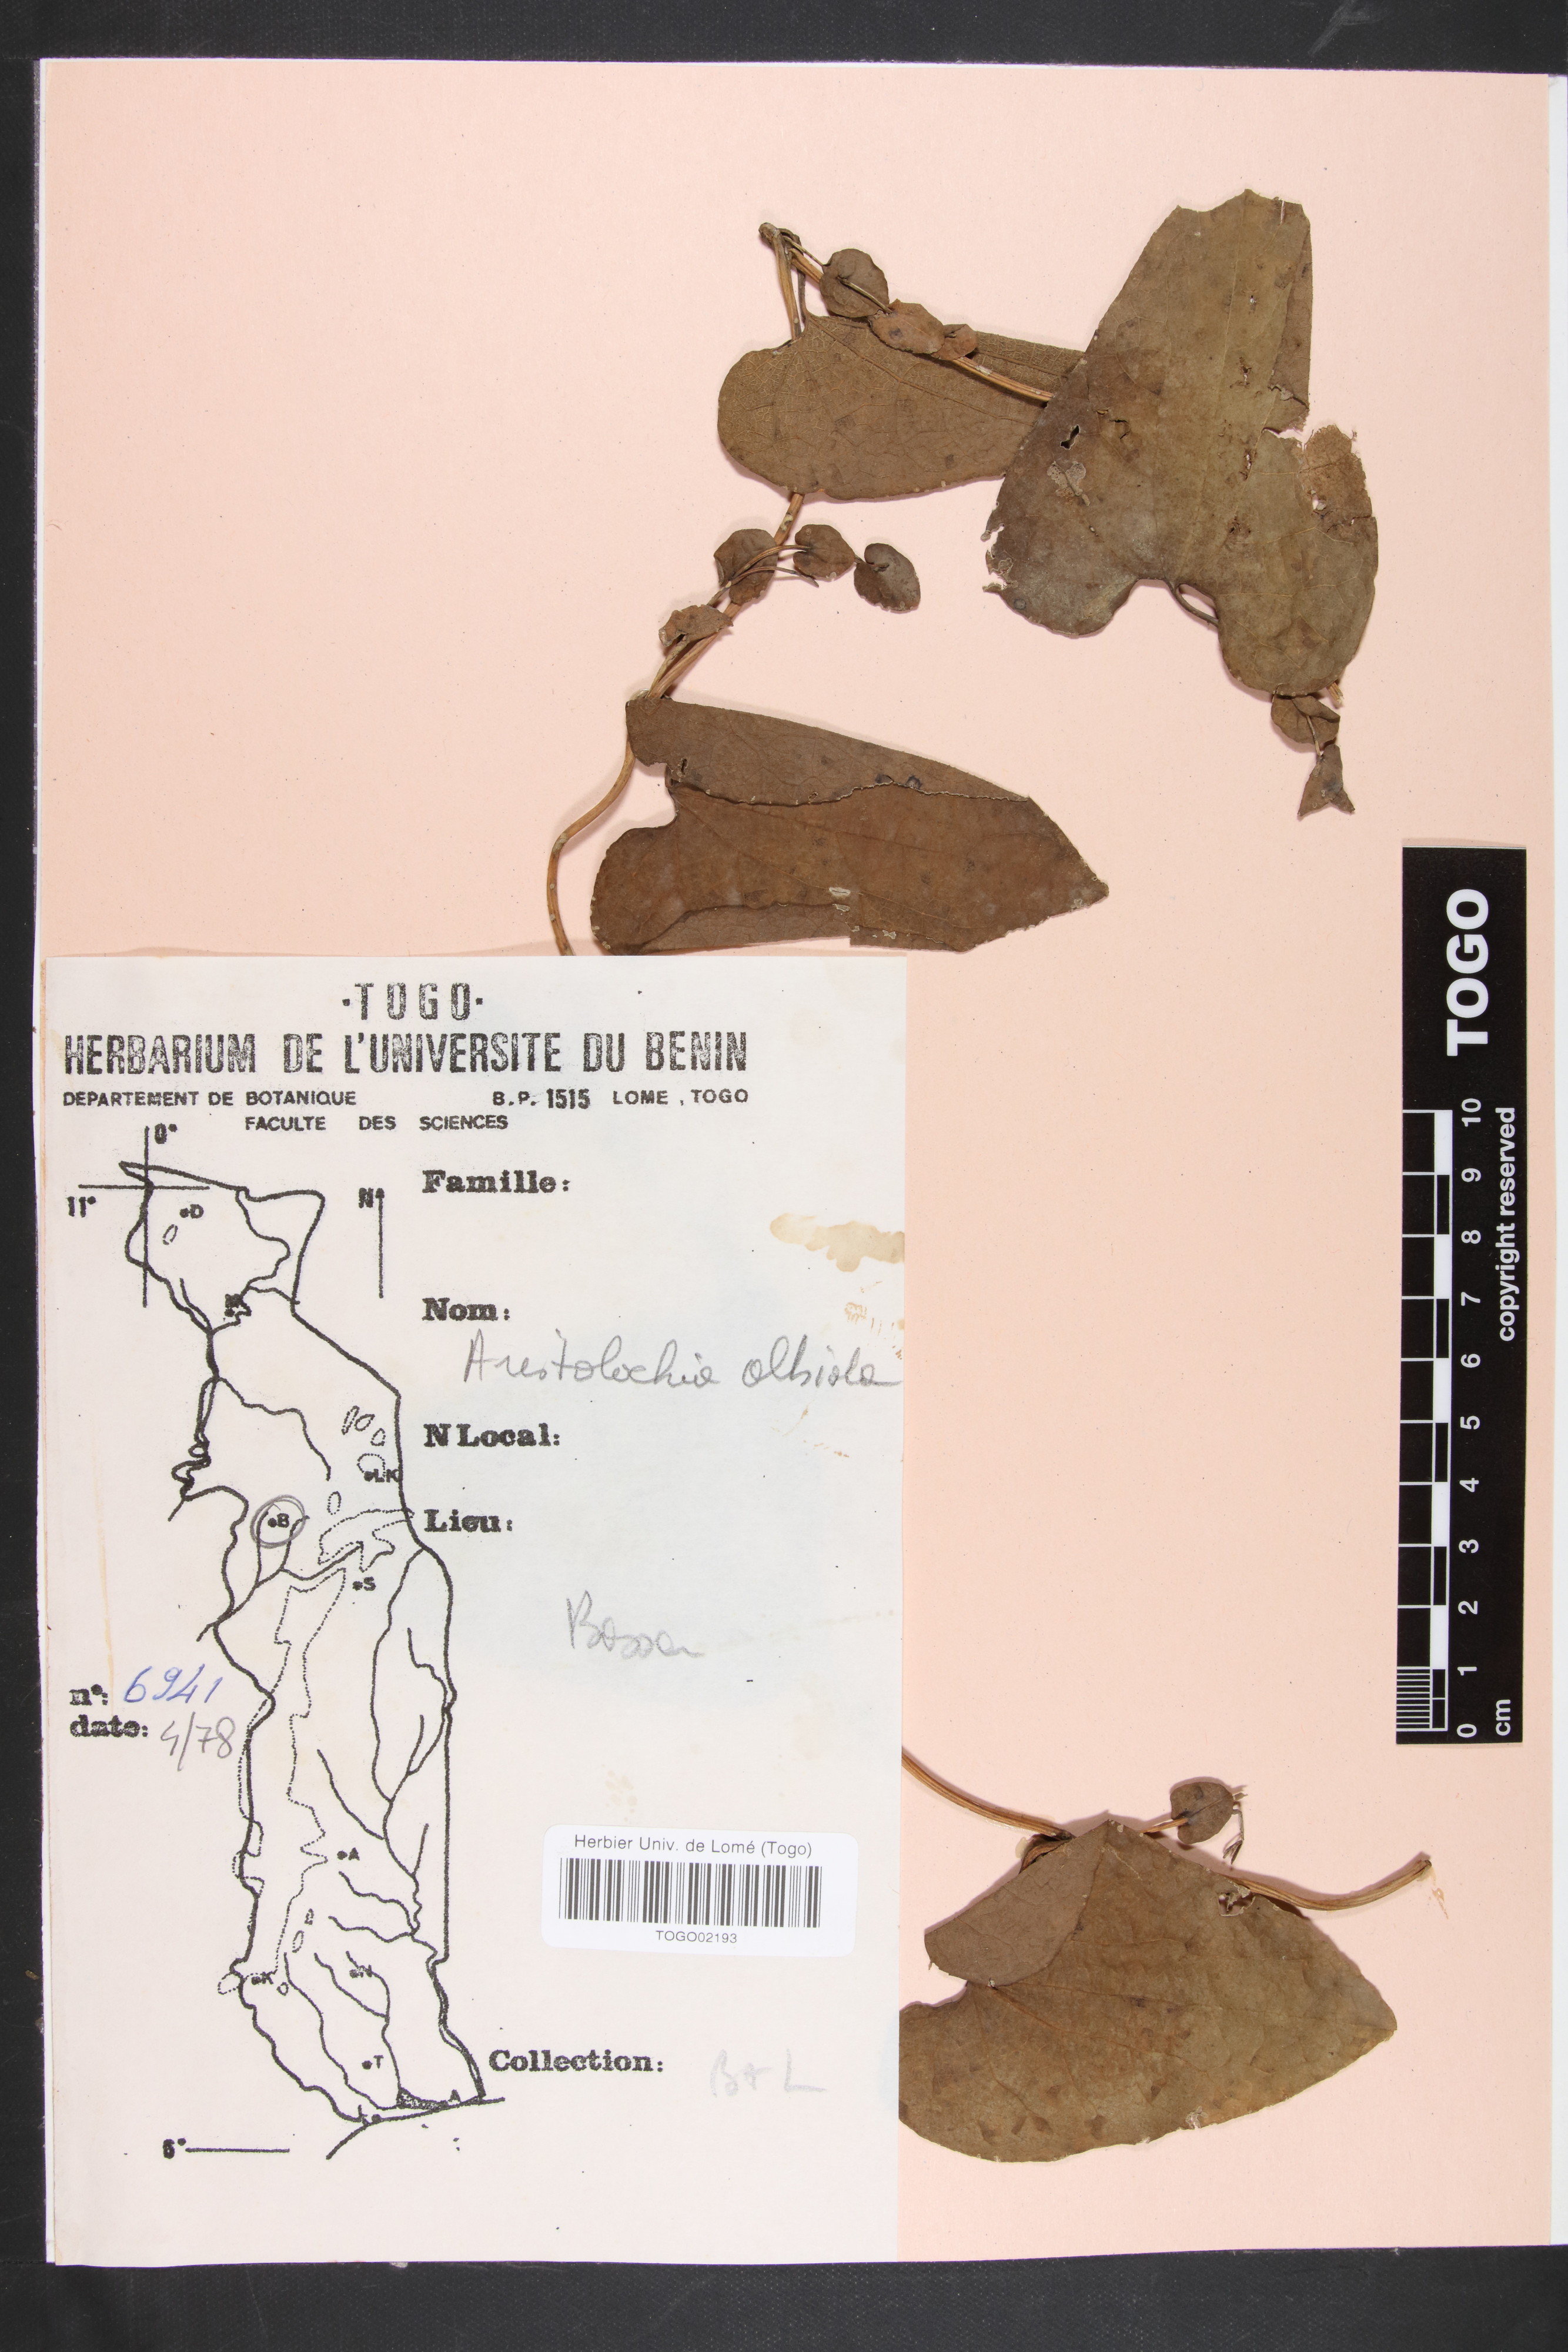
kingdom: Plantae
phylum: Tracheophyta
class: Magnoliopsida
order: Piperales
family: Aristolochiaceae
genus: Aristolochia
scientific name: Aristolochia albida
